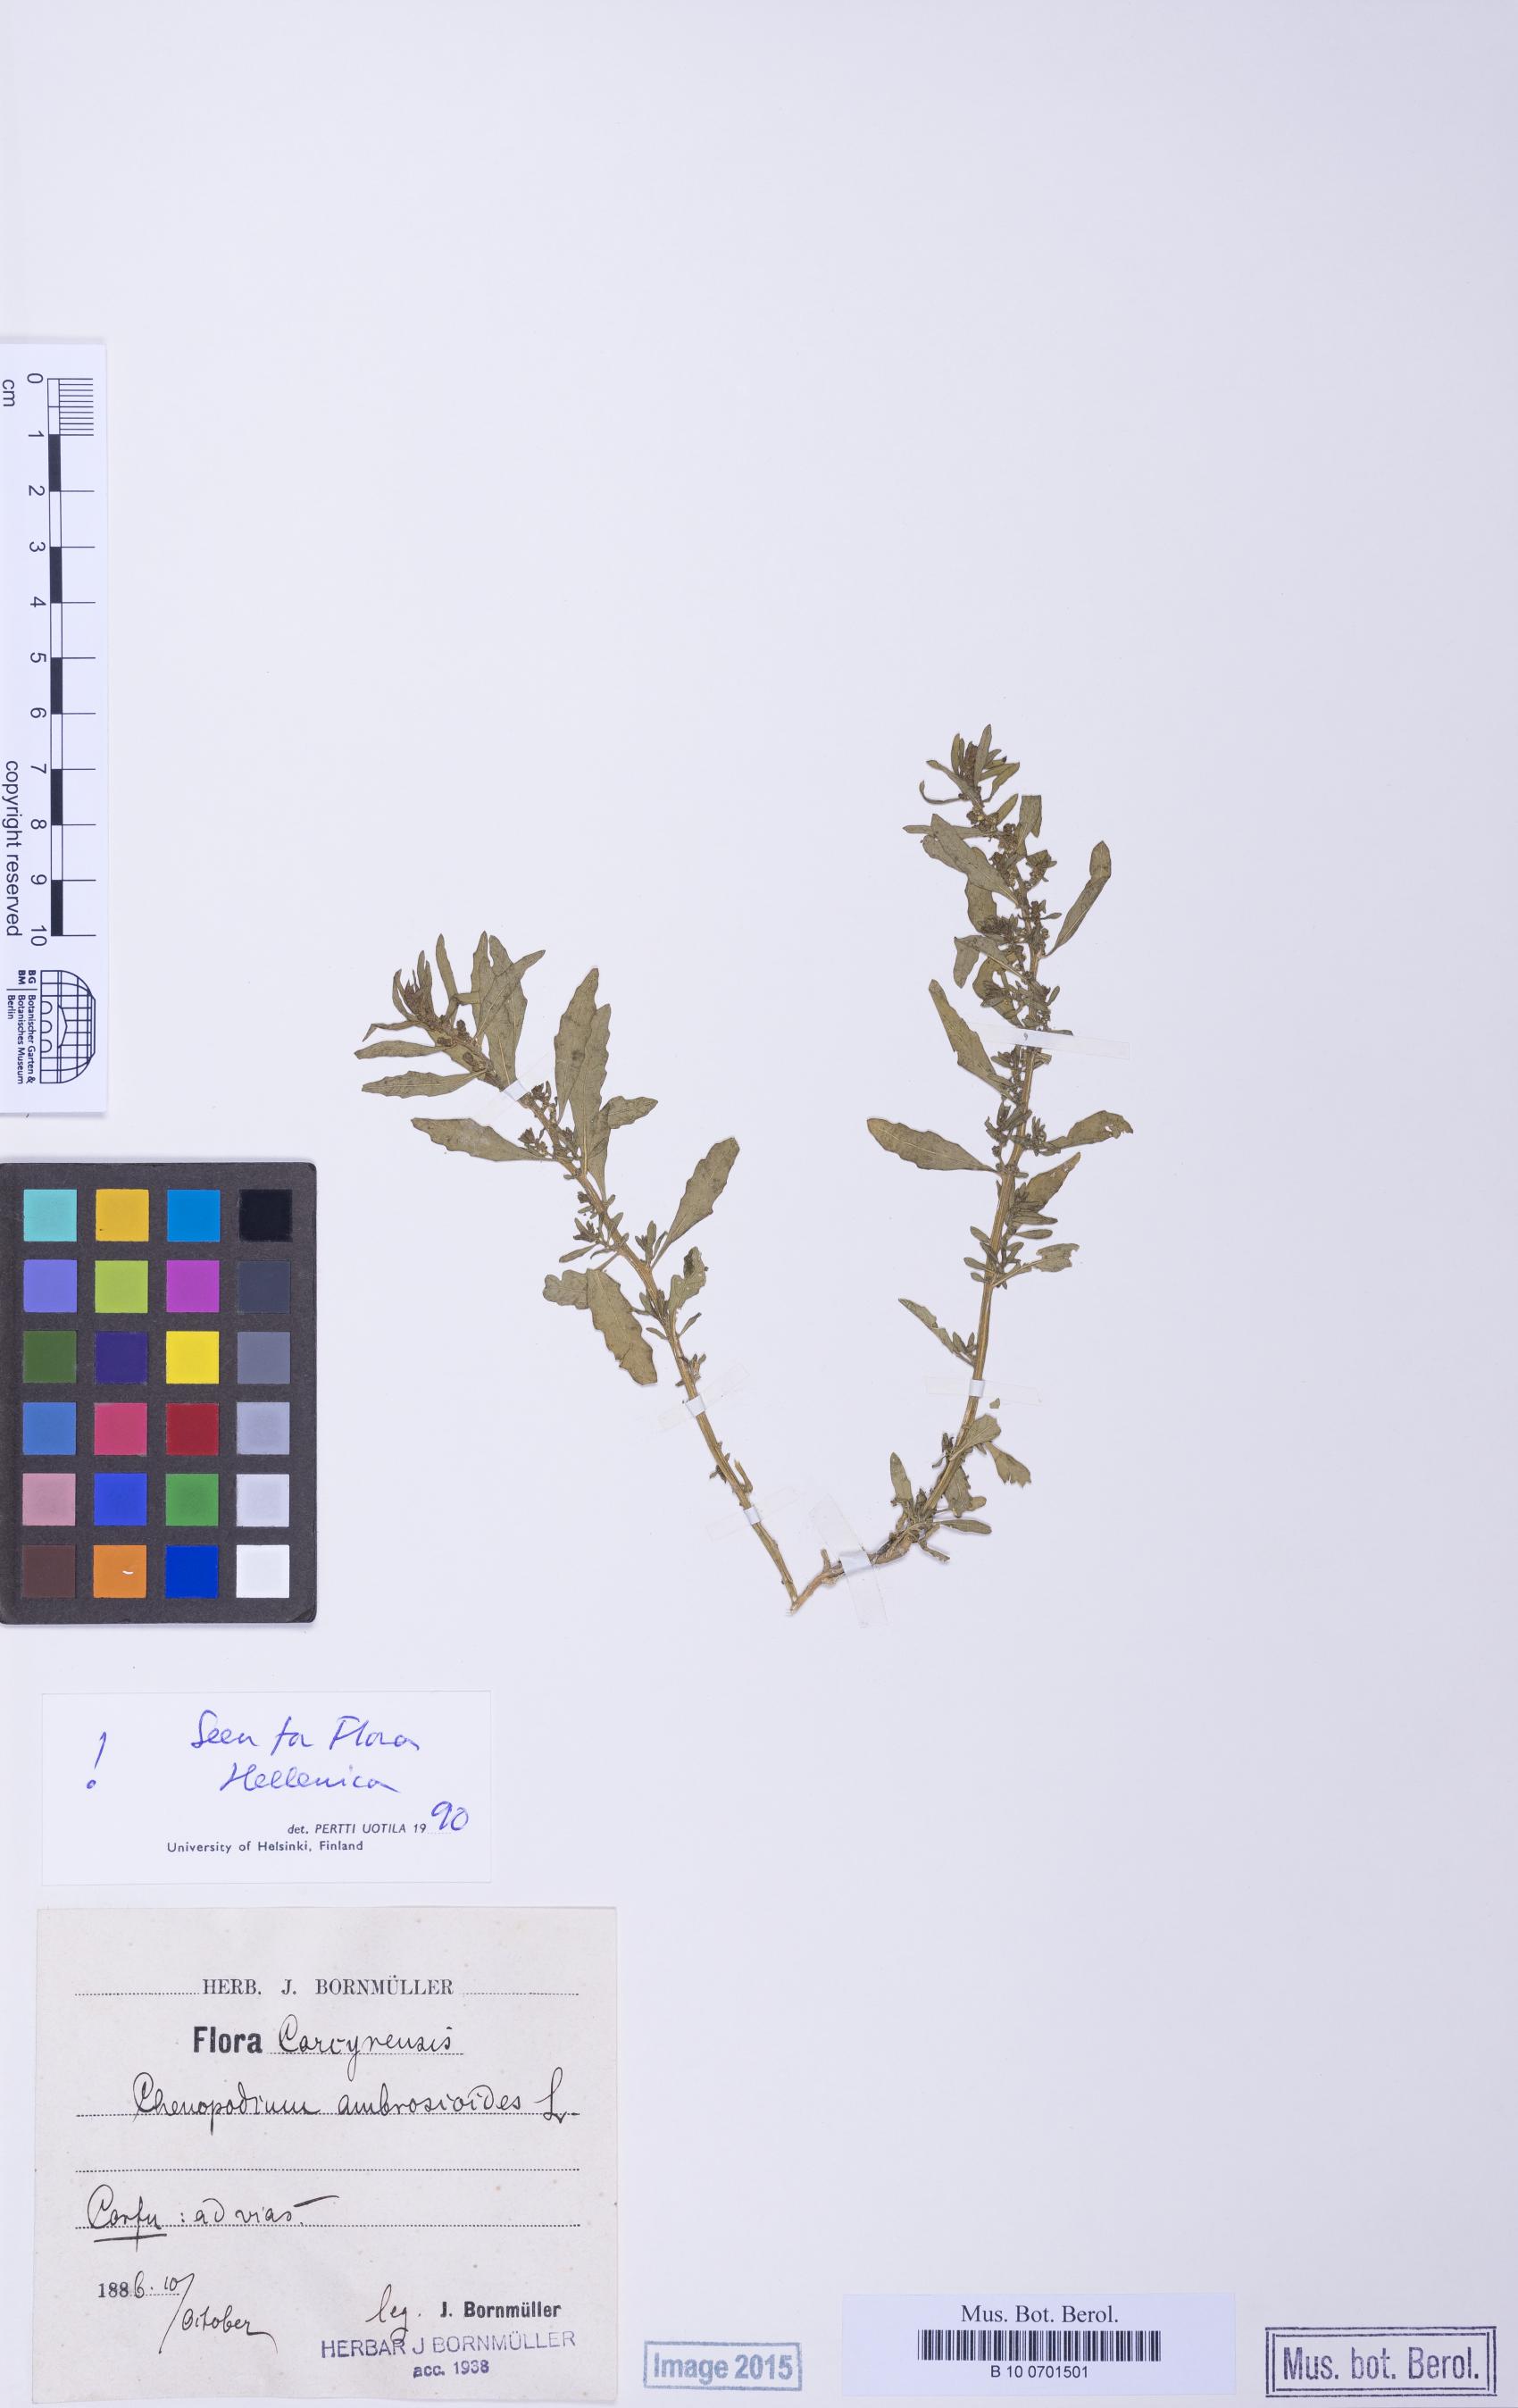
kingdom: Plantae
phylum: Tracheophyta
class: Magnoliopsida
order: Caryophyllales
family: Amaranthaceae
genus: Dysphania
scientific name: Dysphania ambrosioides
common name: Wormseed
